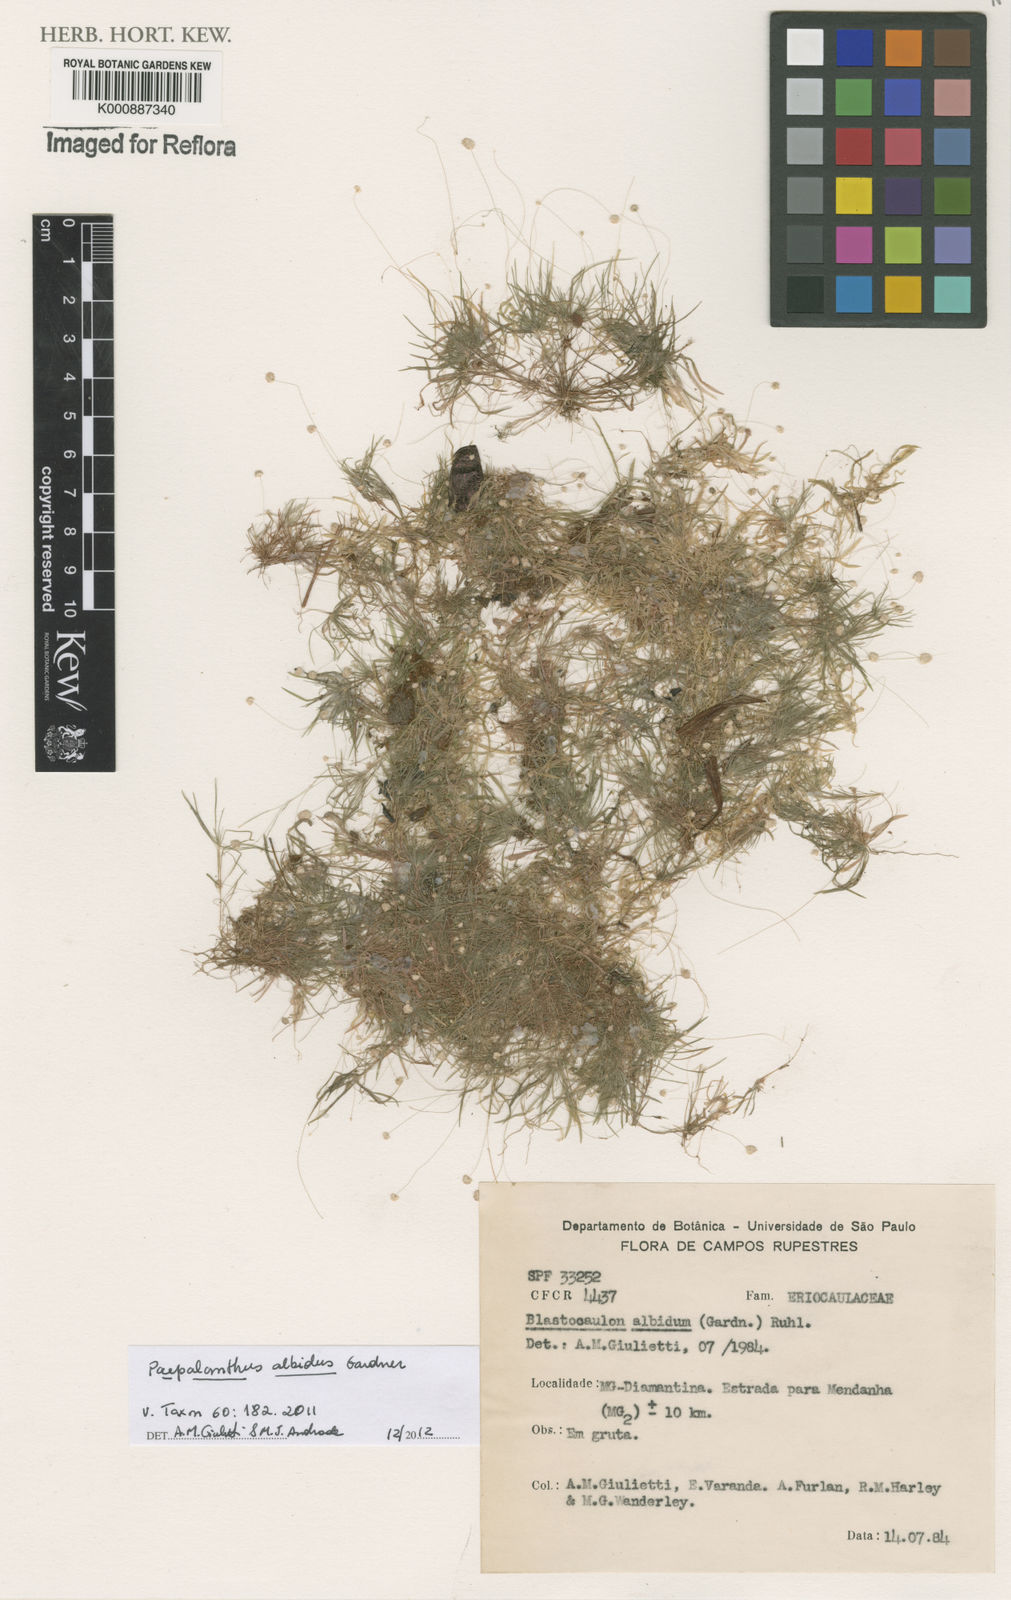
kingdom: Plantae
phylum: Tracheophyta
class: Liliopsida
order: Poales
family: Eriocaulaceae
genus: Paepalanthus
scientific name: Paepalanthus albidus
